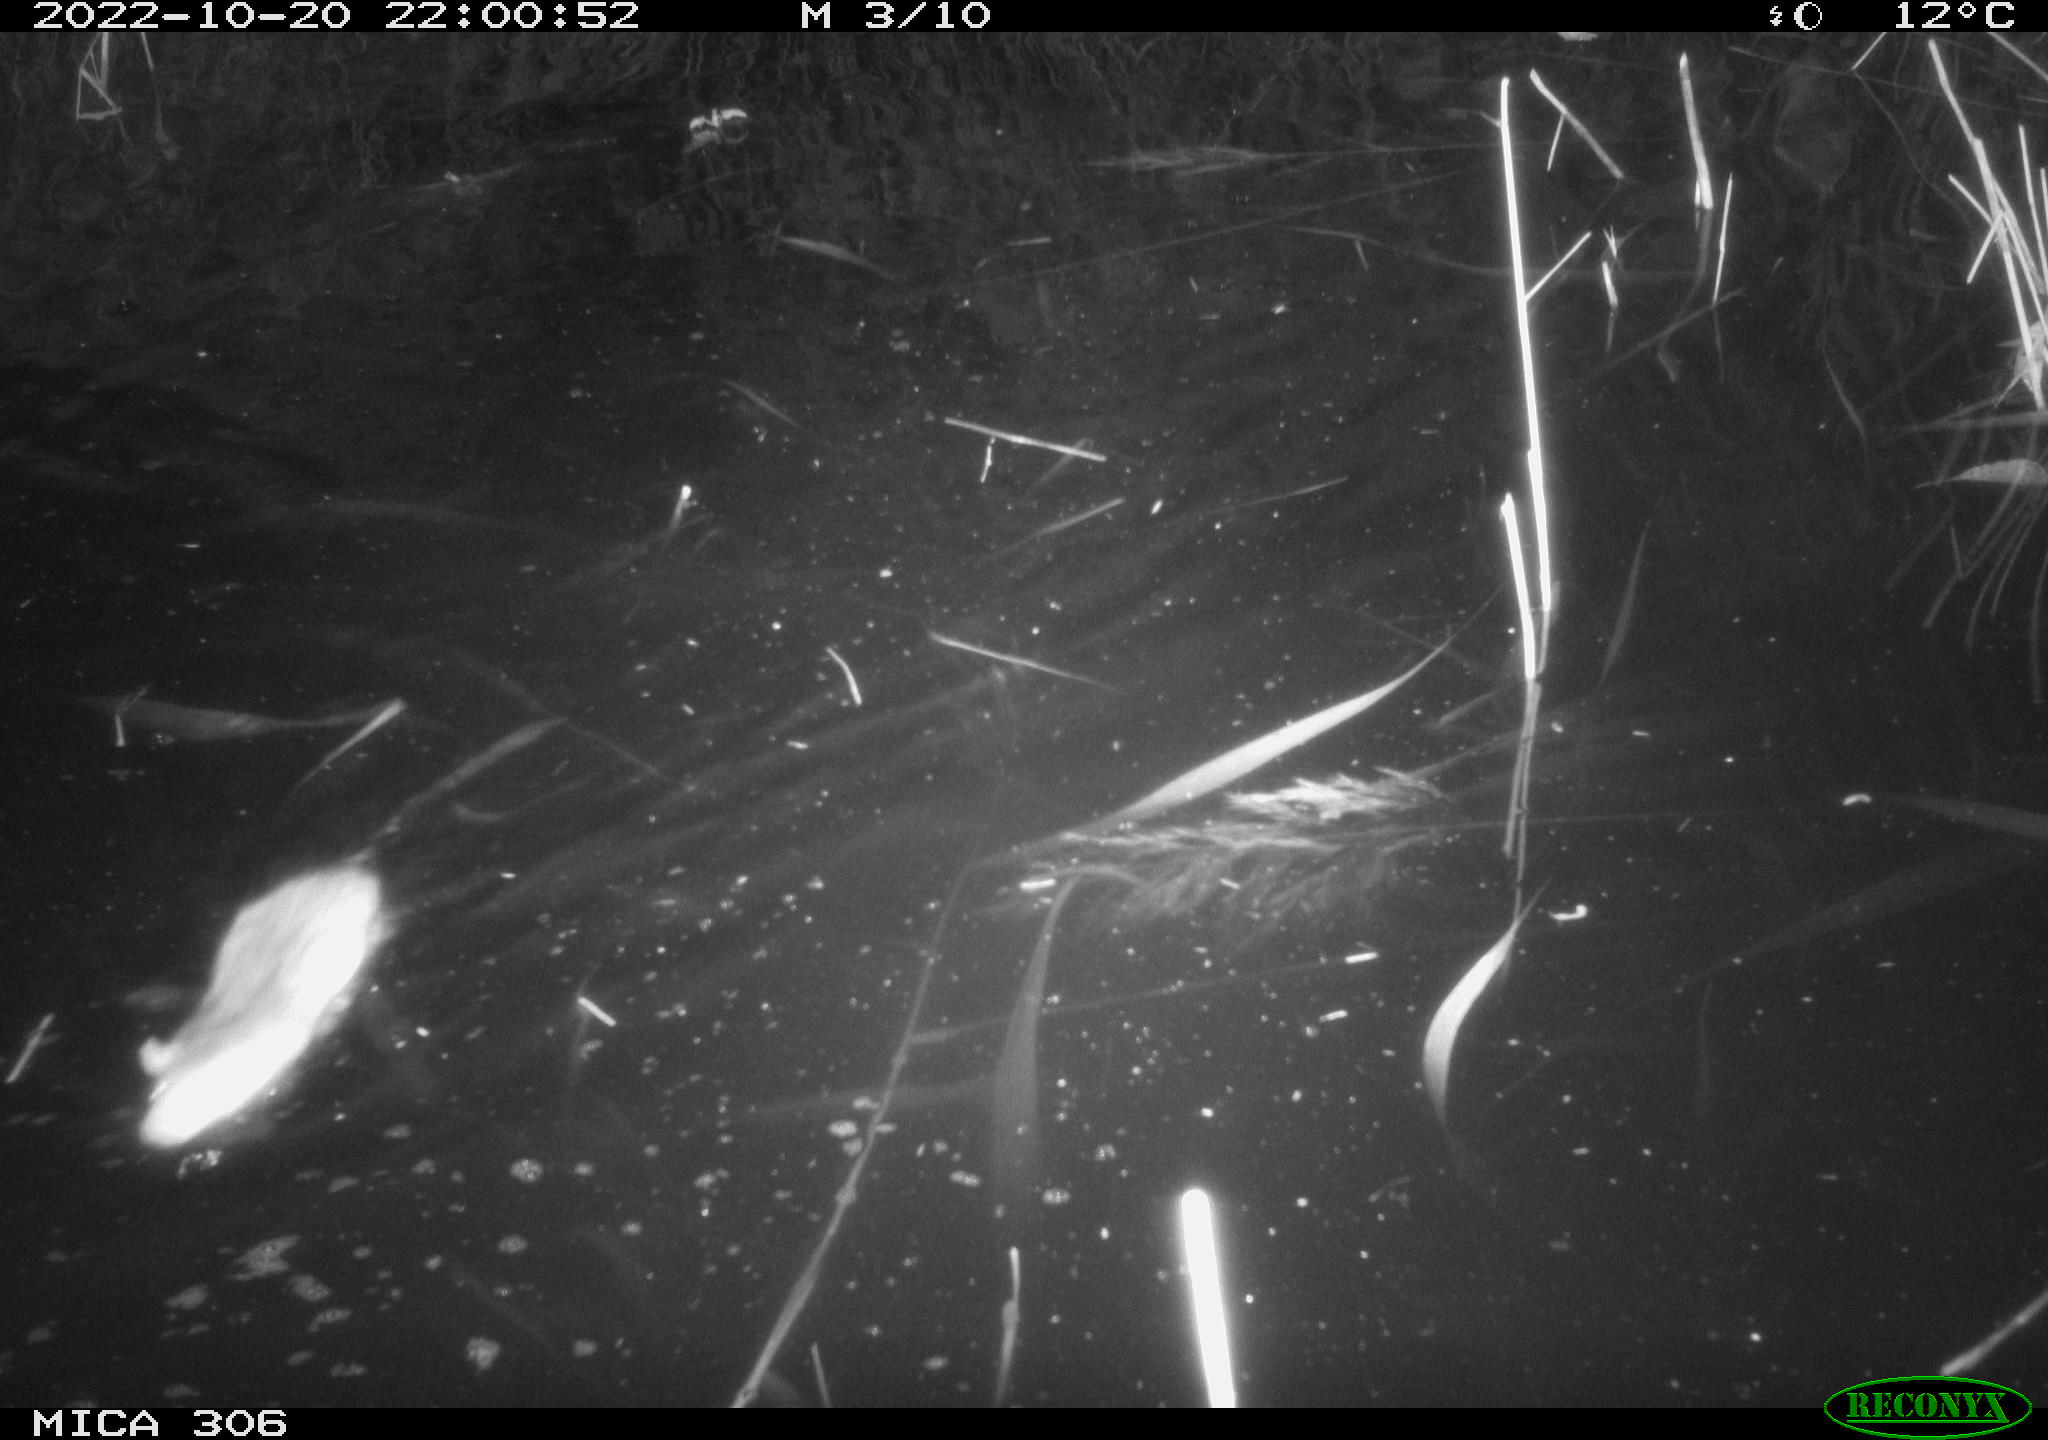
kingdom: Animalia
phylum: Chordata
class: Mammalia
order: Rodentia
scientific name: Rodentia
